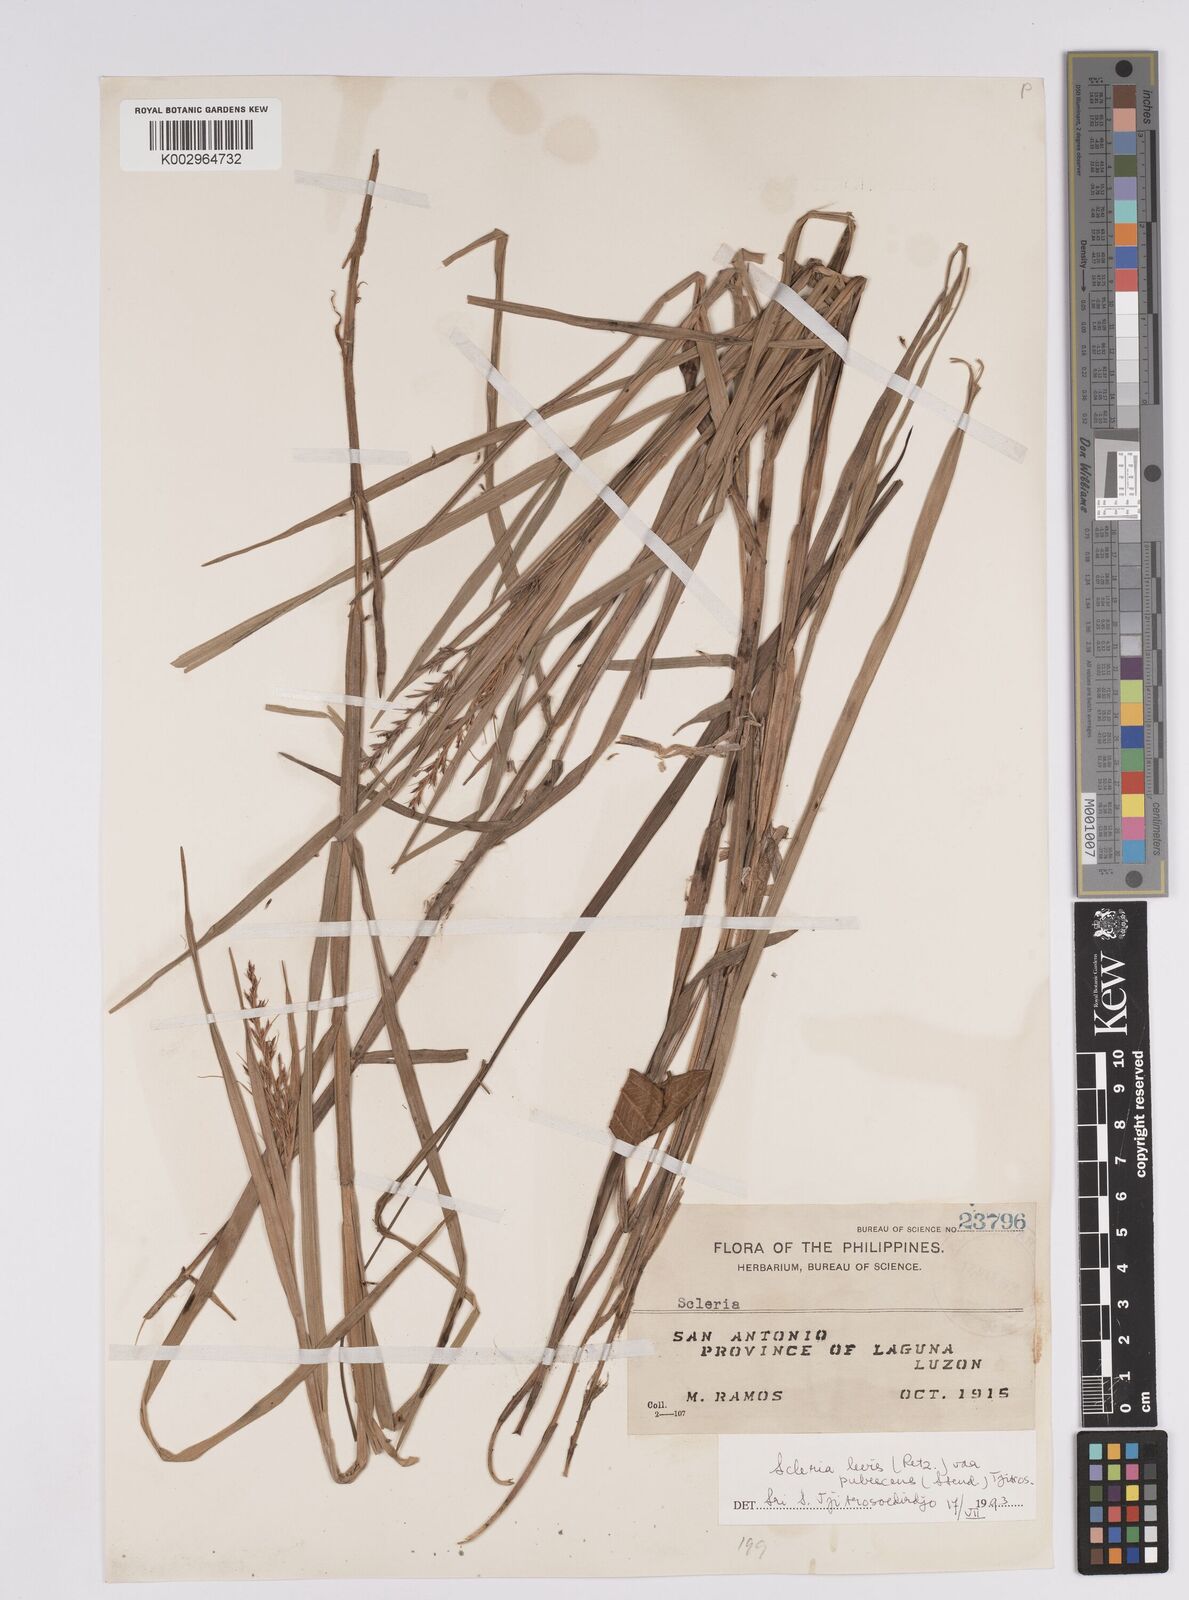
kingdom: Plantae
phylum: Tracheophyta
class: Liliopsida
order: Poales
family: Cyperaceae
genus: Scleria
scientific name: Scleria levis
